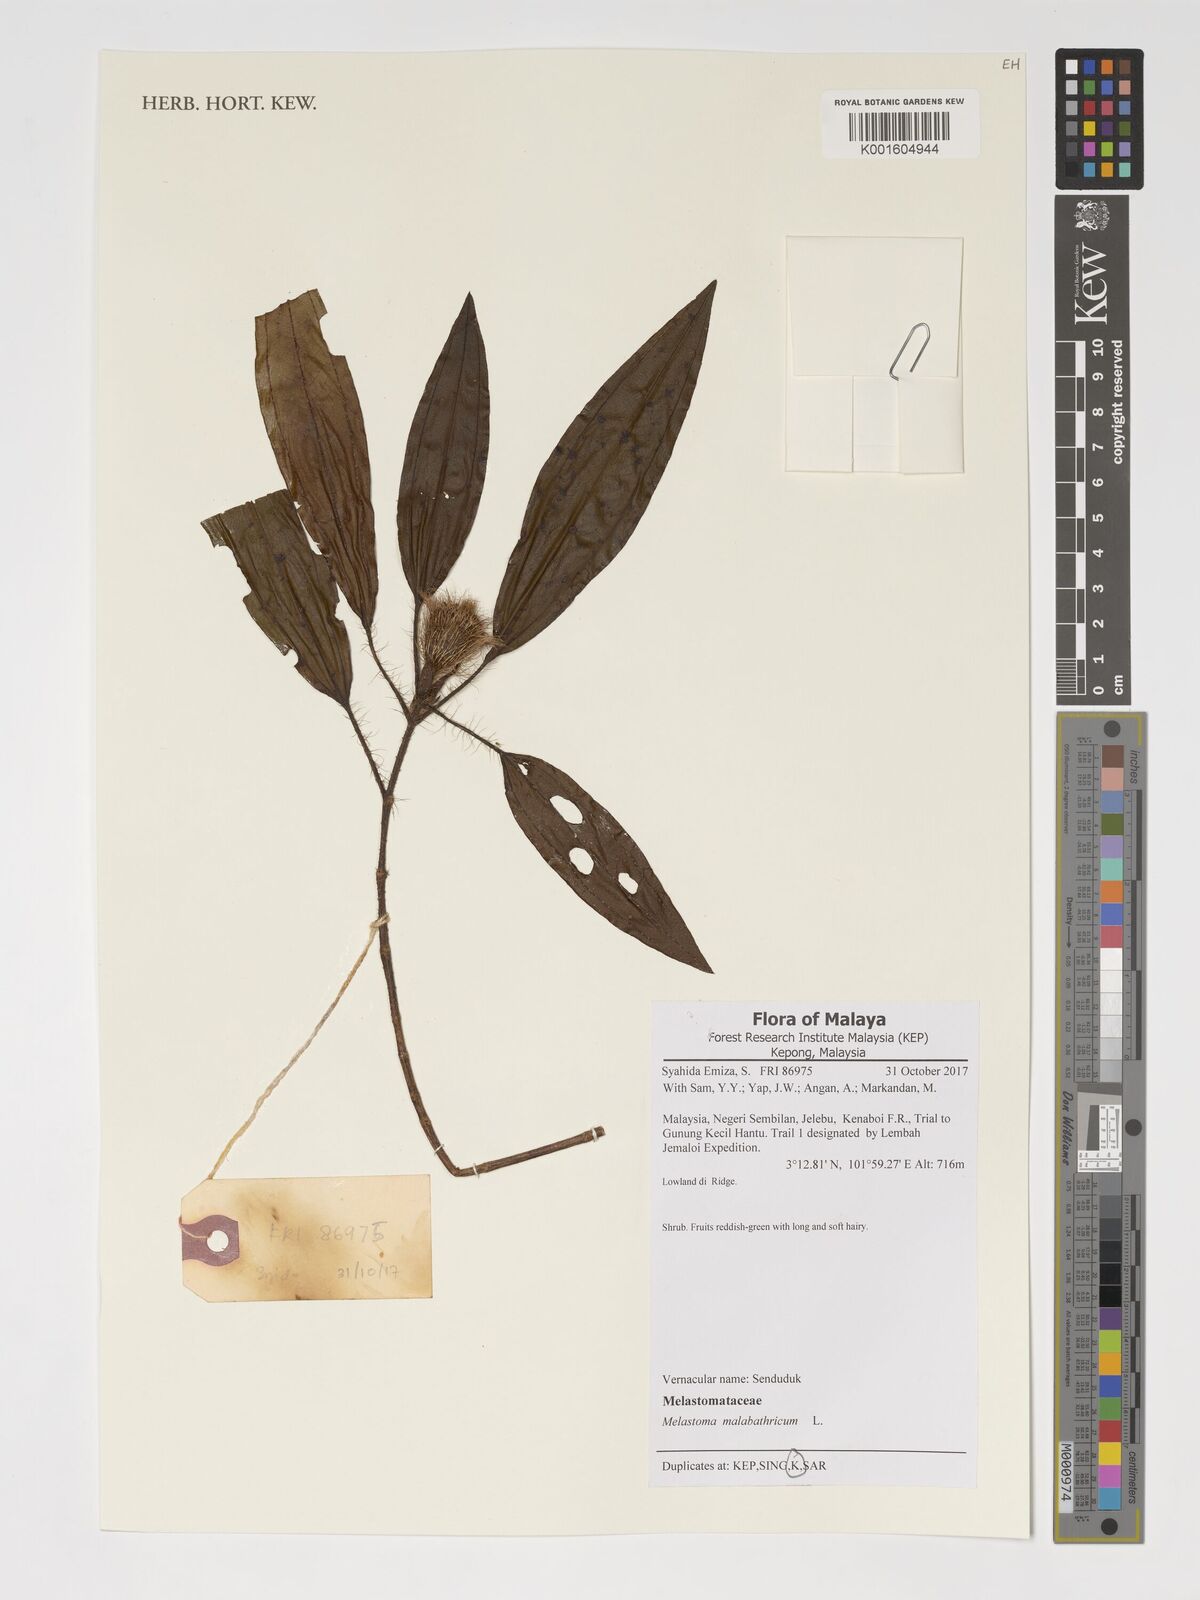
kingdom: Plantae
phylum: Tracheophyta
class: Magnoliopsida
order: Myrtales
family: Melastomataceae
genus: Melastoma
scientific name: Melastoma malabathricum
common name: Indian-rhododendron
